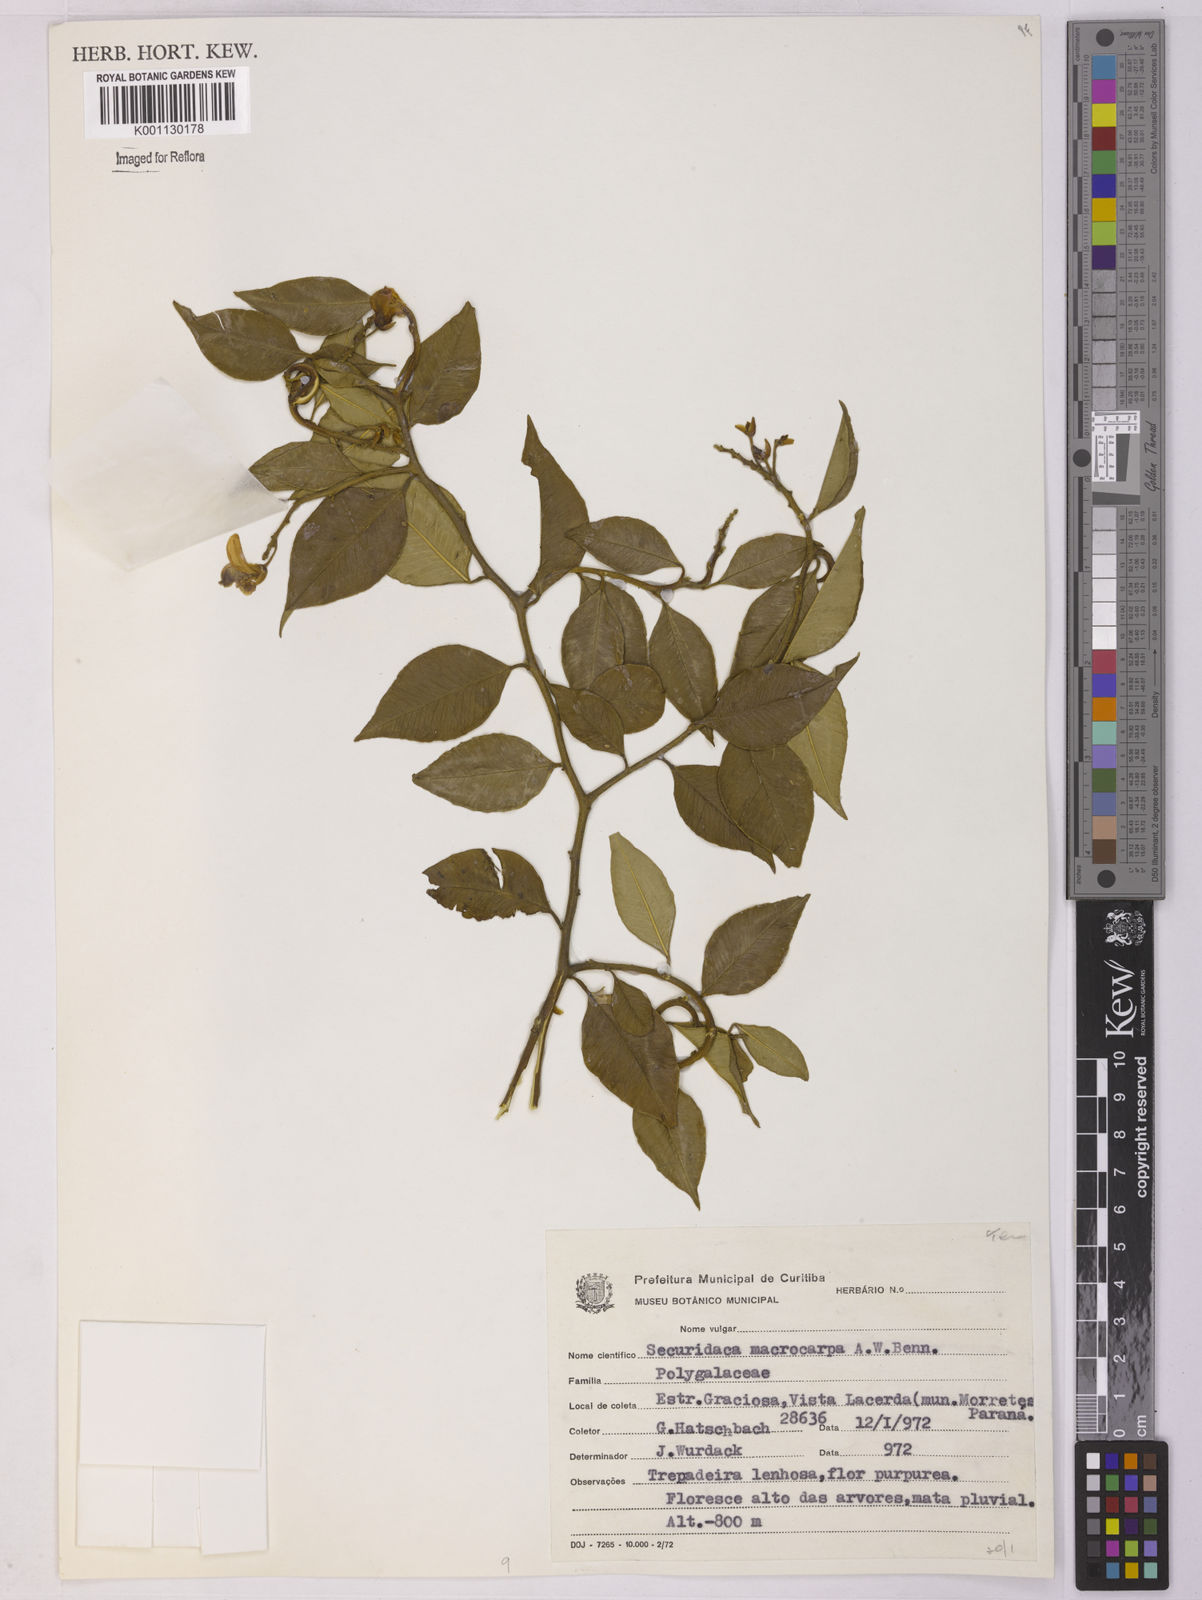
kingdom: Plantae
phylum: Tracheophyta
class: Magnoliopsida
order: Fabales
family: Polygalaceae
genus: Securidaca
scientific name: Securidaca macrocarpa
